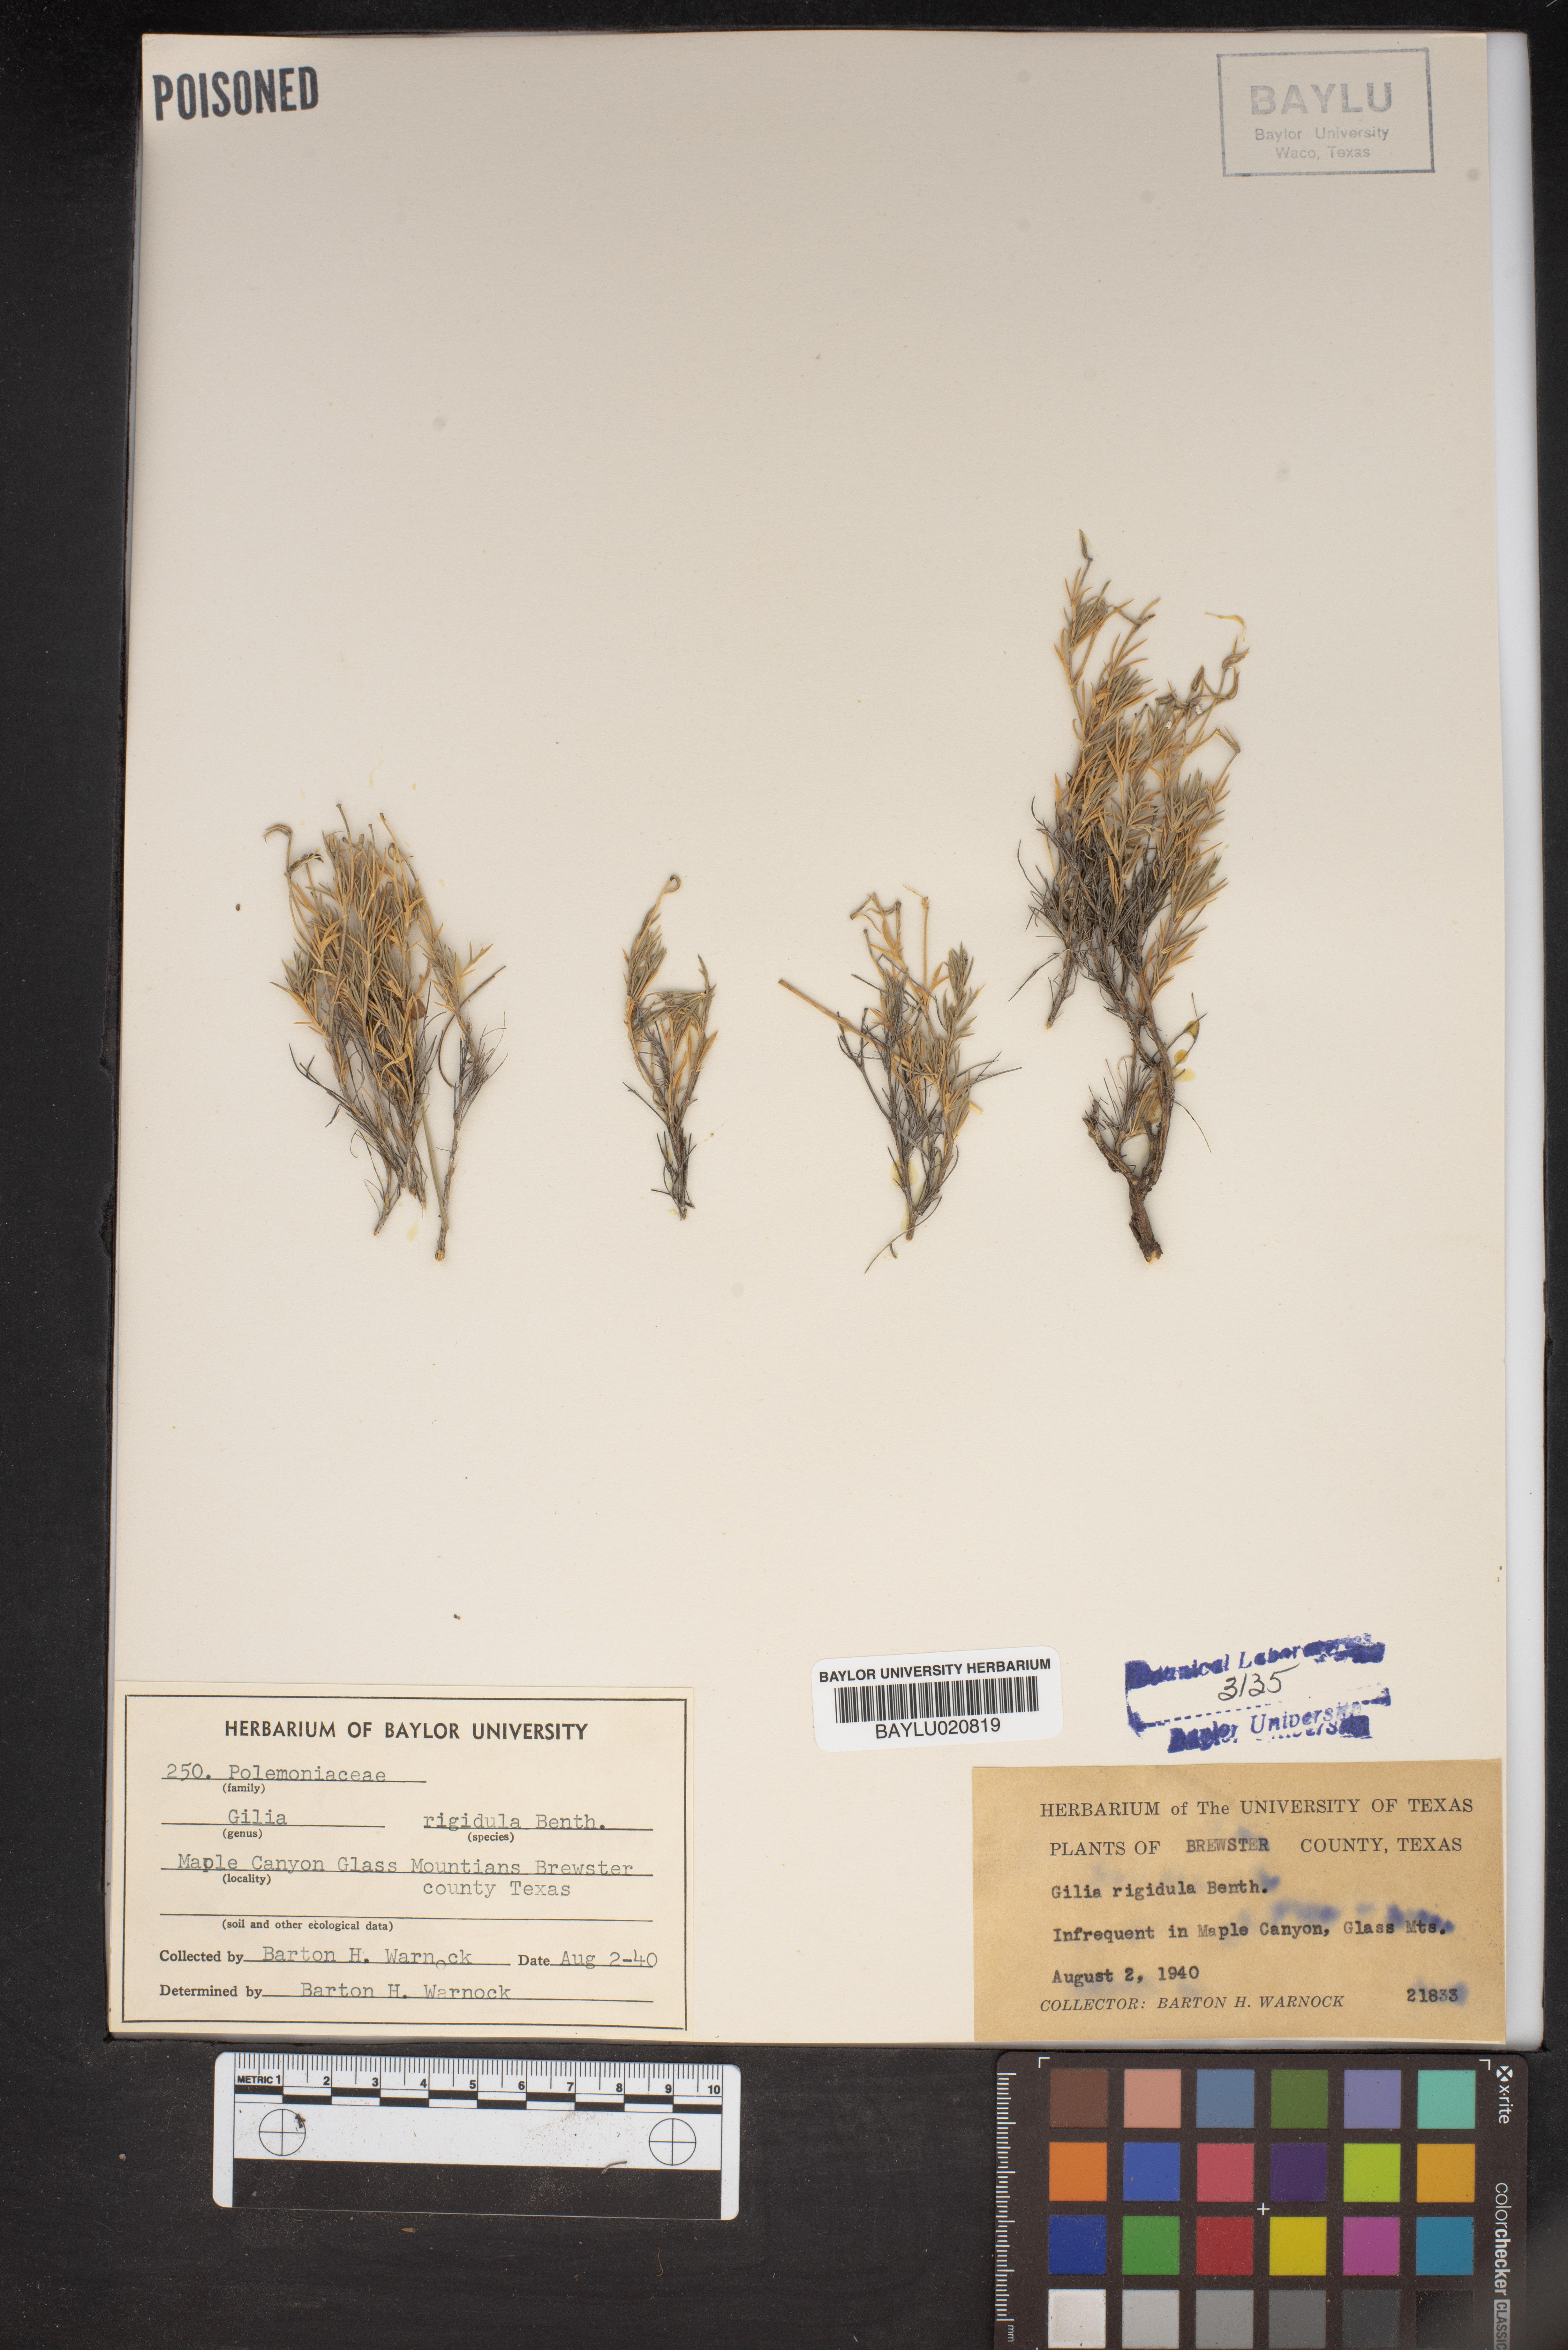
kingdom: Plantae
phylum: Tracheophyta
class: Magnoliopsida
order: Ericales
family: Polemoniaceae
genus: Giliastrum
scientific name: Giliastrum rigidulum
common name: Bluebowls
